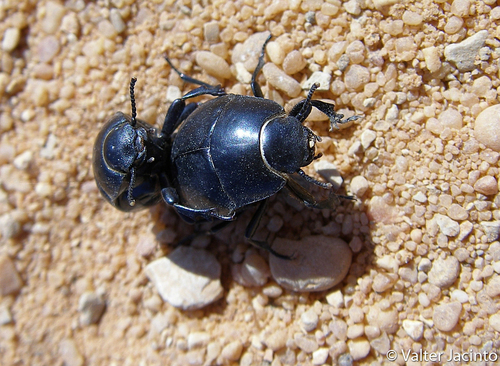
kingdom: Animalia
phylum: Arthropoda
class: Insecta
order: Coleoptera
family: Tenebrionidae
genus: Erodius
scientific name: Erodius tibialis
